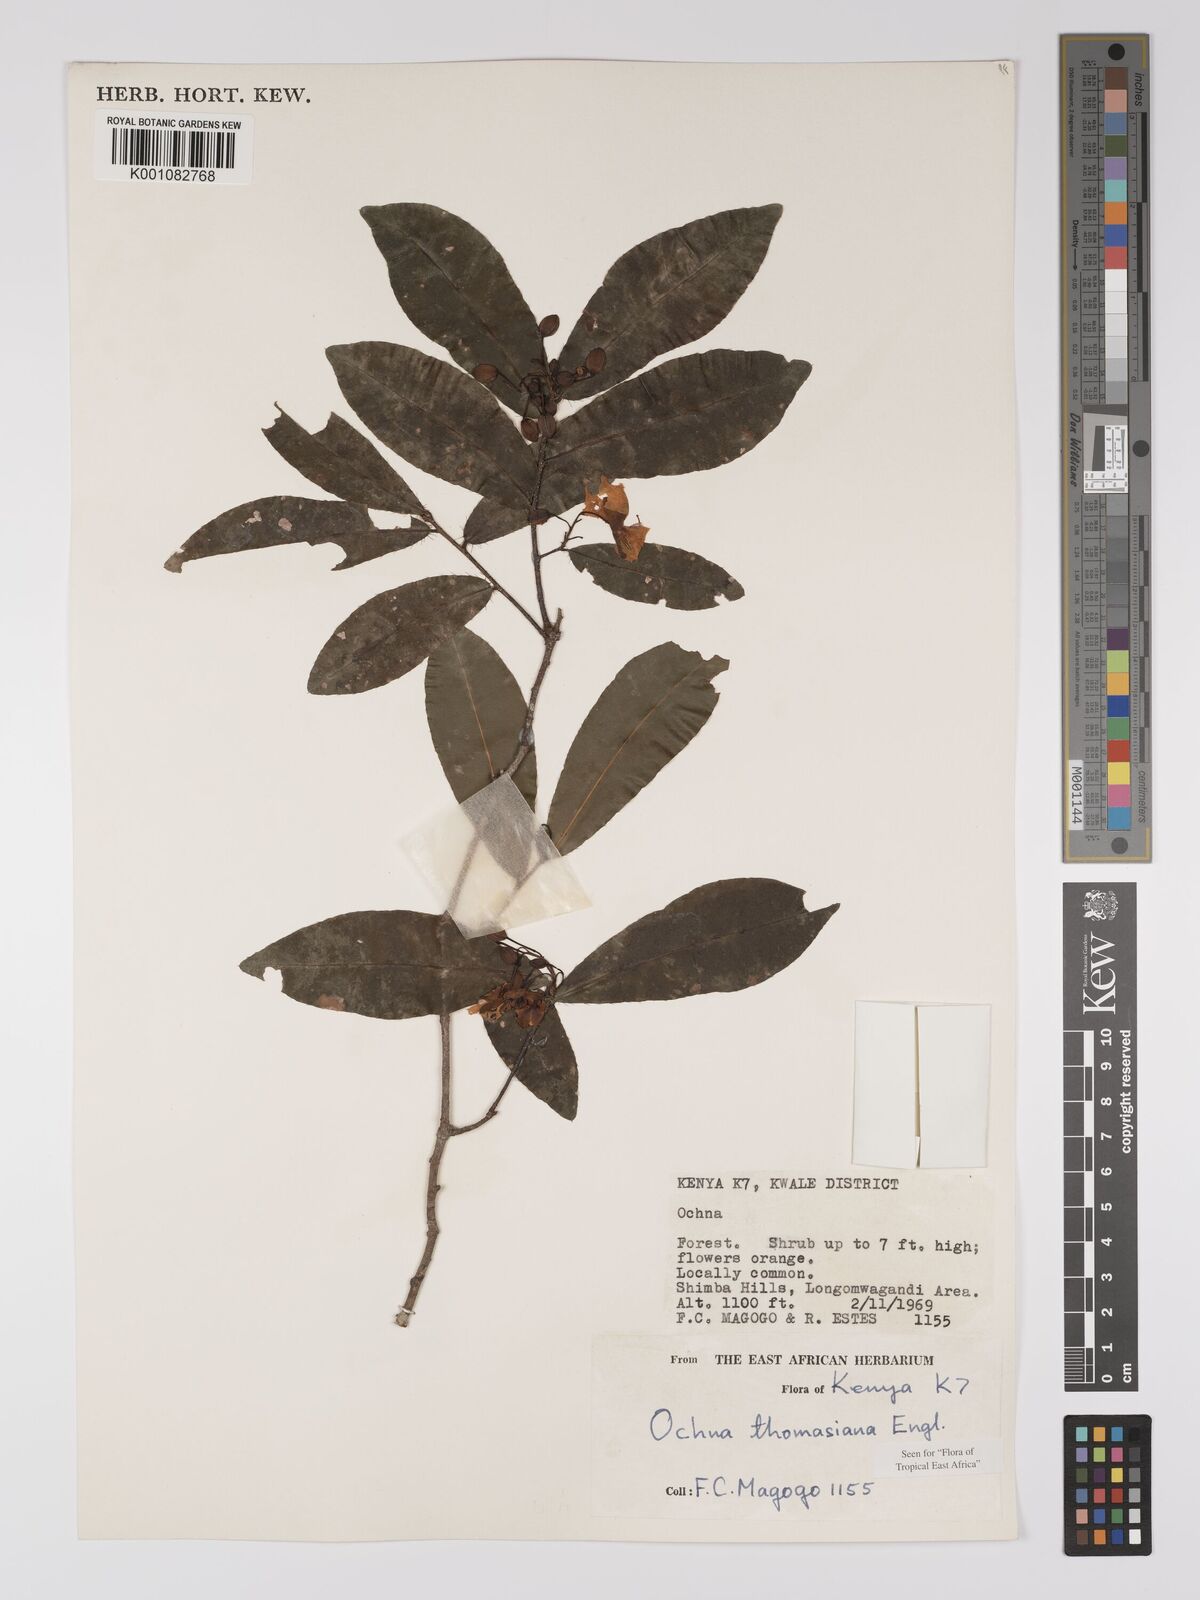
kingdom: Plantae
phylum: Tracheophyta
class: Magnoliopsida
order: Malpighiales
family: Ochnaceae
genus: Ochna
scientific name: Ochna thomasiana
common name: Thomas' bird's-eye bush
